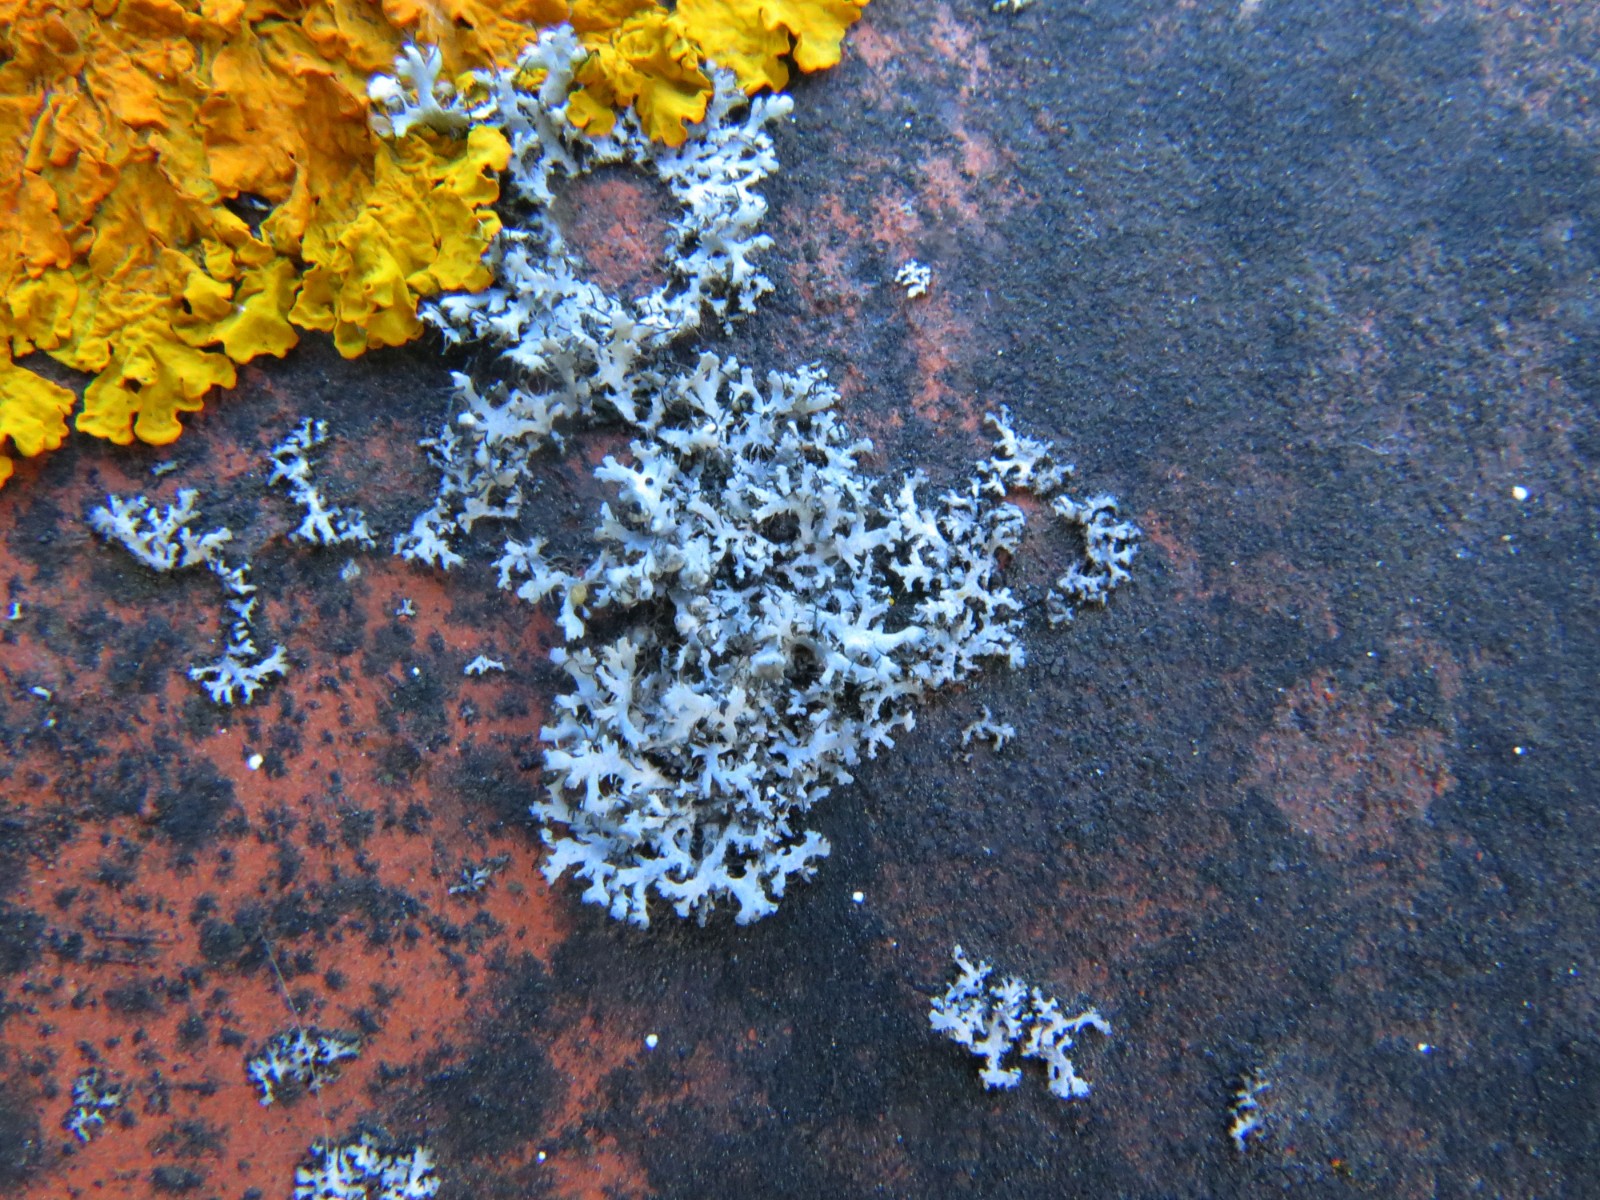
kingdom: Fungi
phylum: Ascomycota
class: Lecanoromycetes
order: Caliciales
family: Physciaceae
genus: Physcia
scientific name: Physcia tenella
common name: spæd rosetlav
